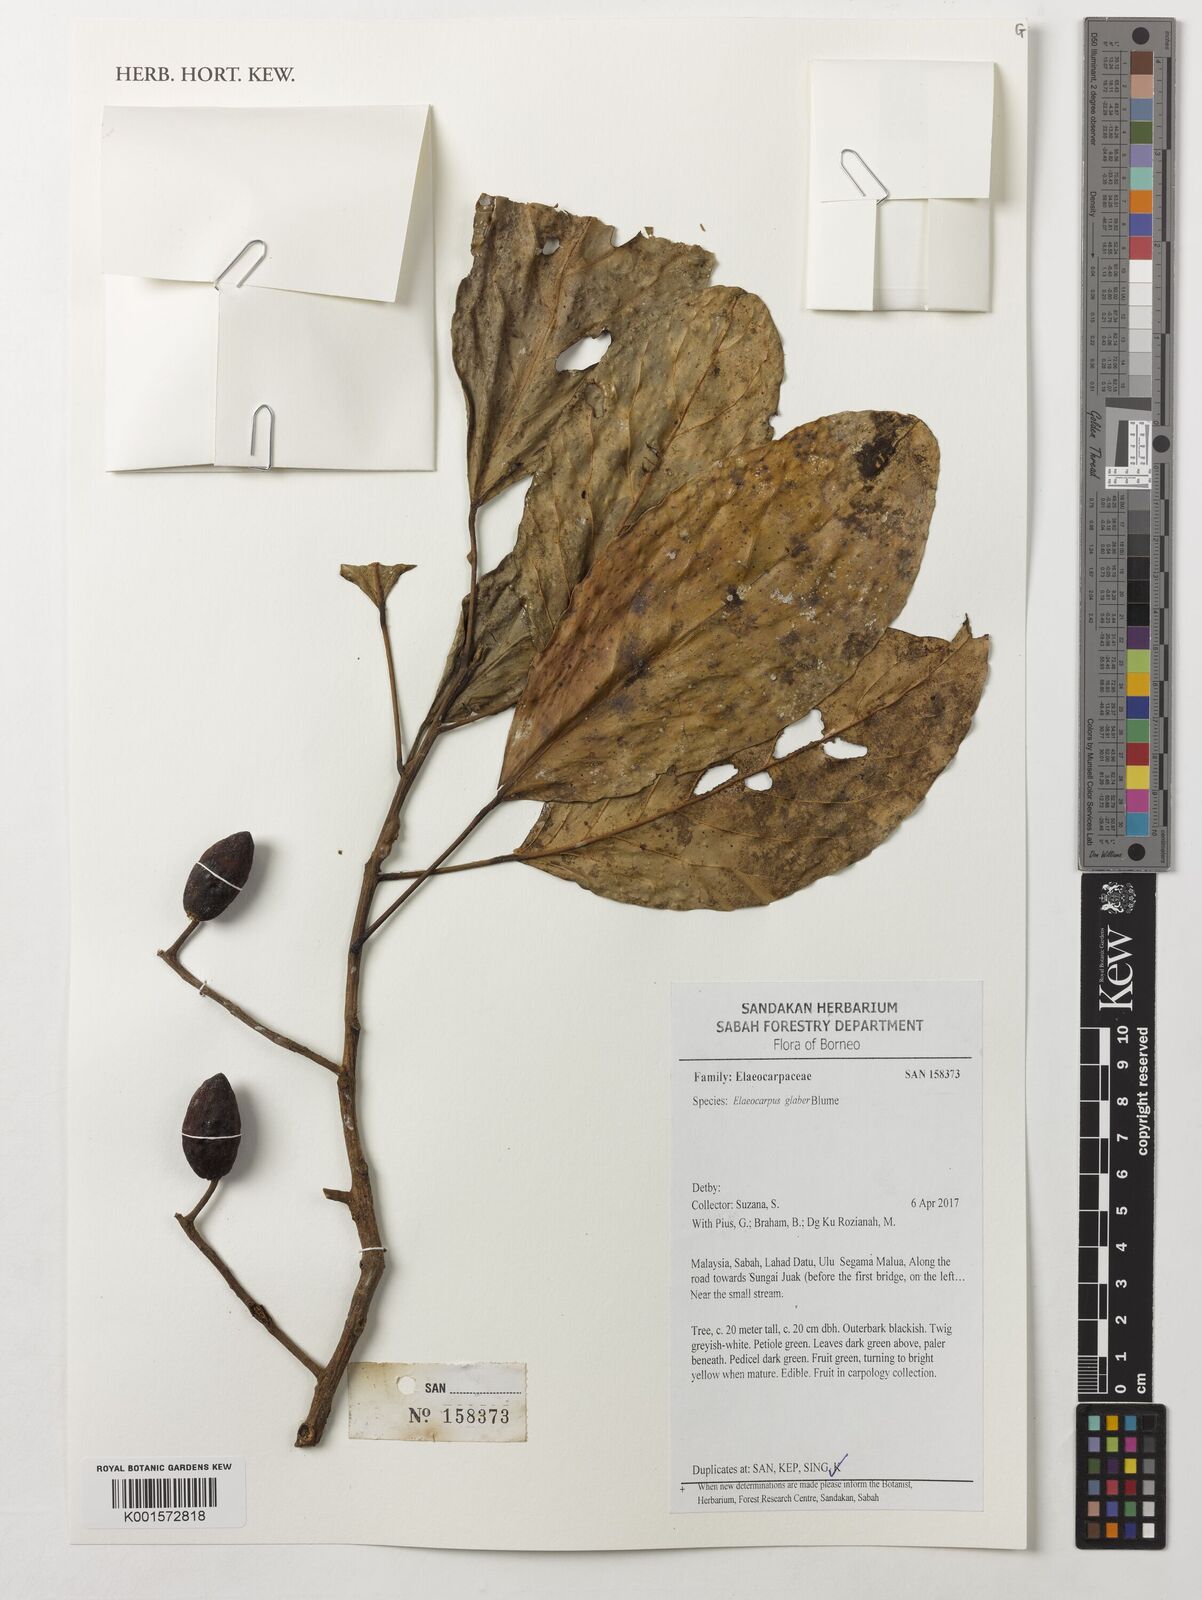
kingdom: Plantae
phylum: Tracheophyta
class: Magnoliopsida
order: Oxalidales
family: Elaeocarpaceae
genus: Elaeocarpus
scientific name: Elaeocarpus glaber
